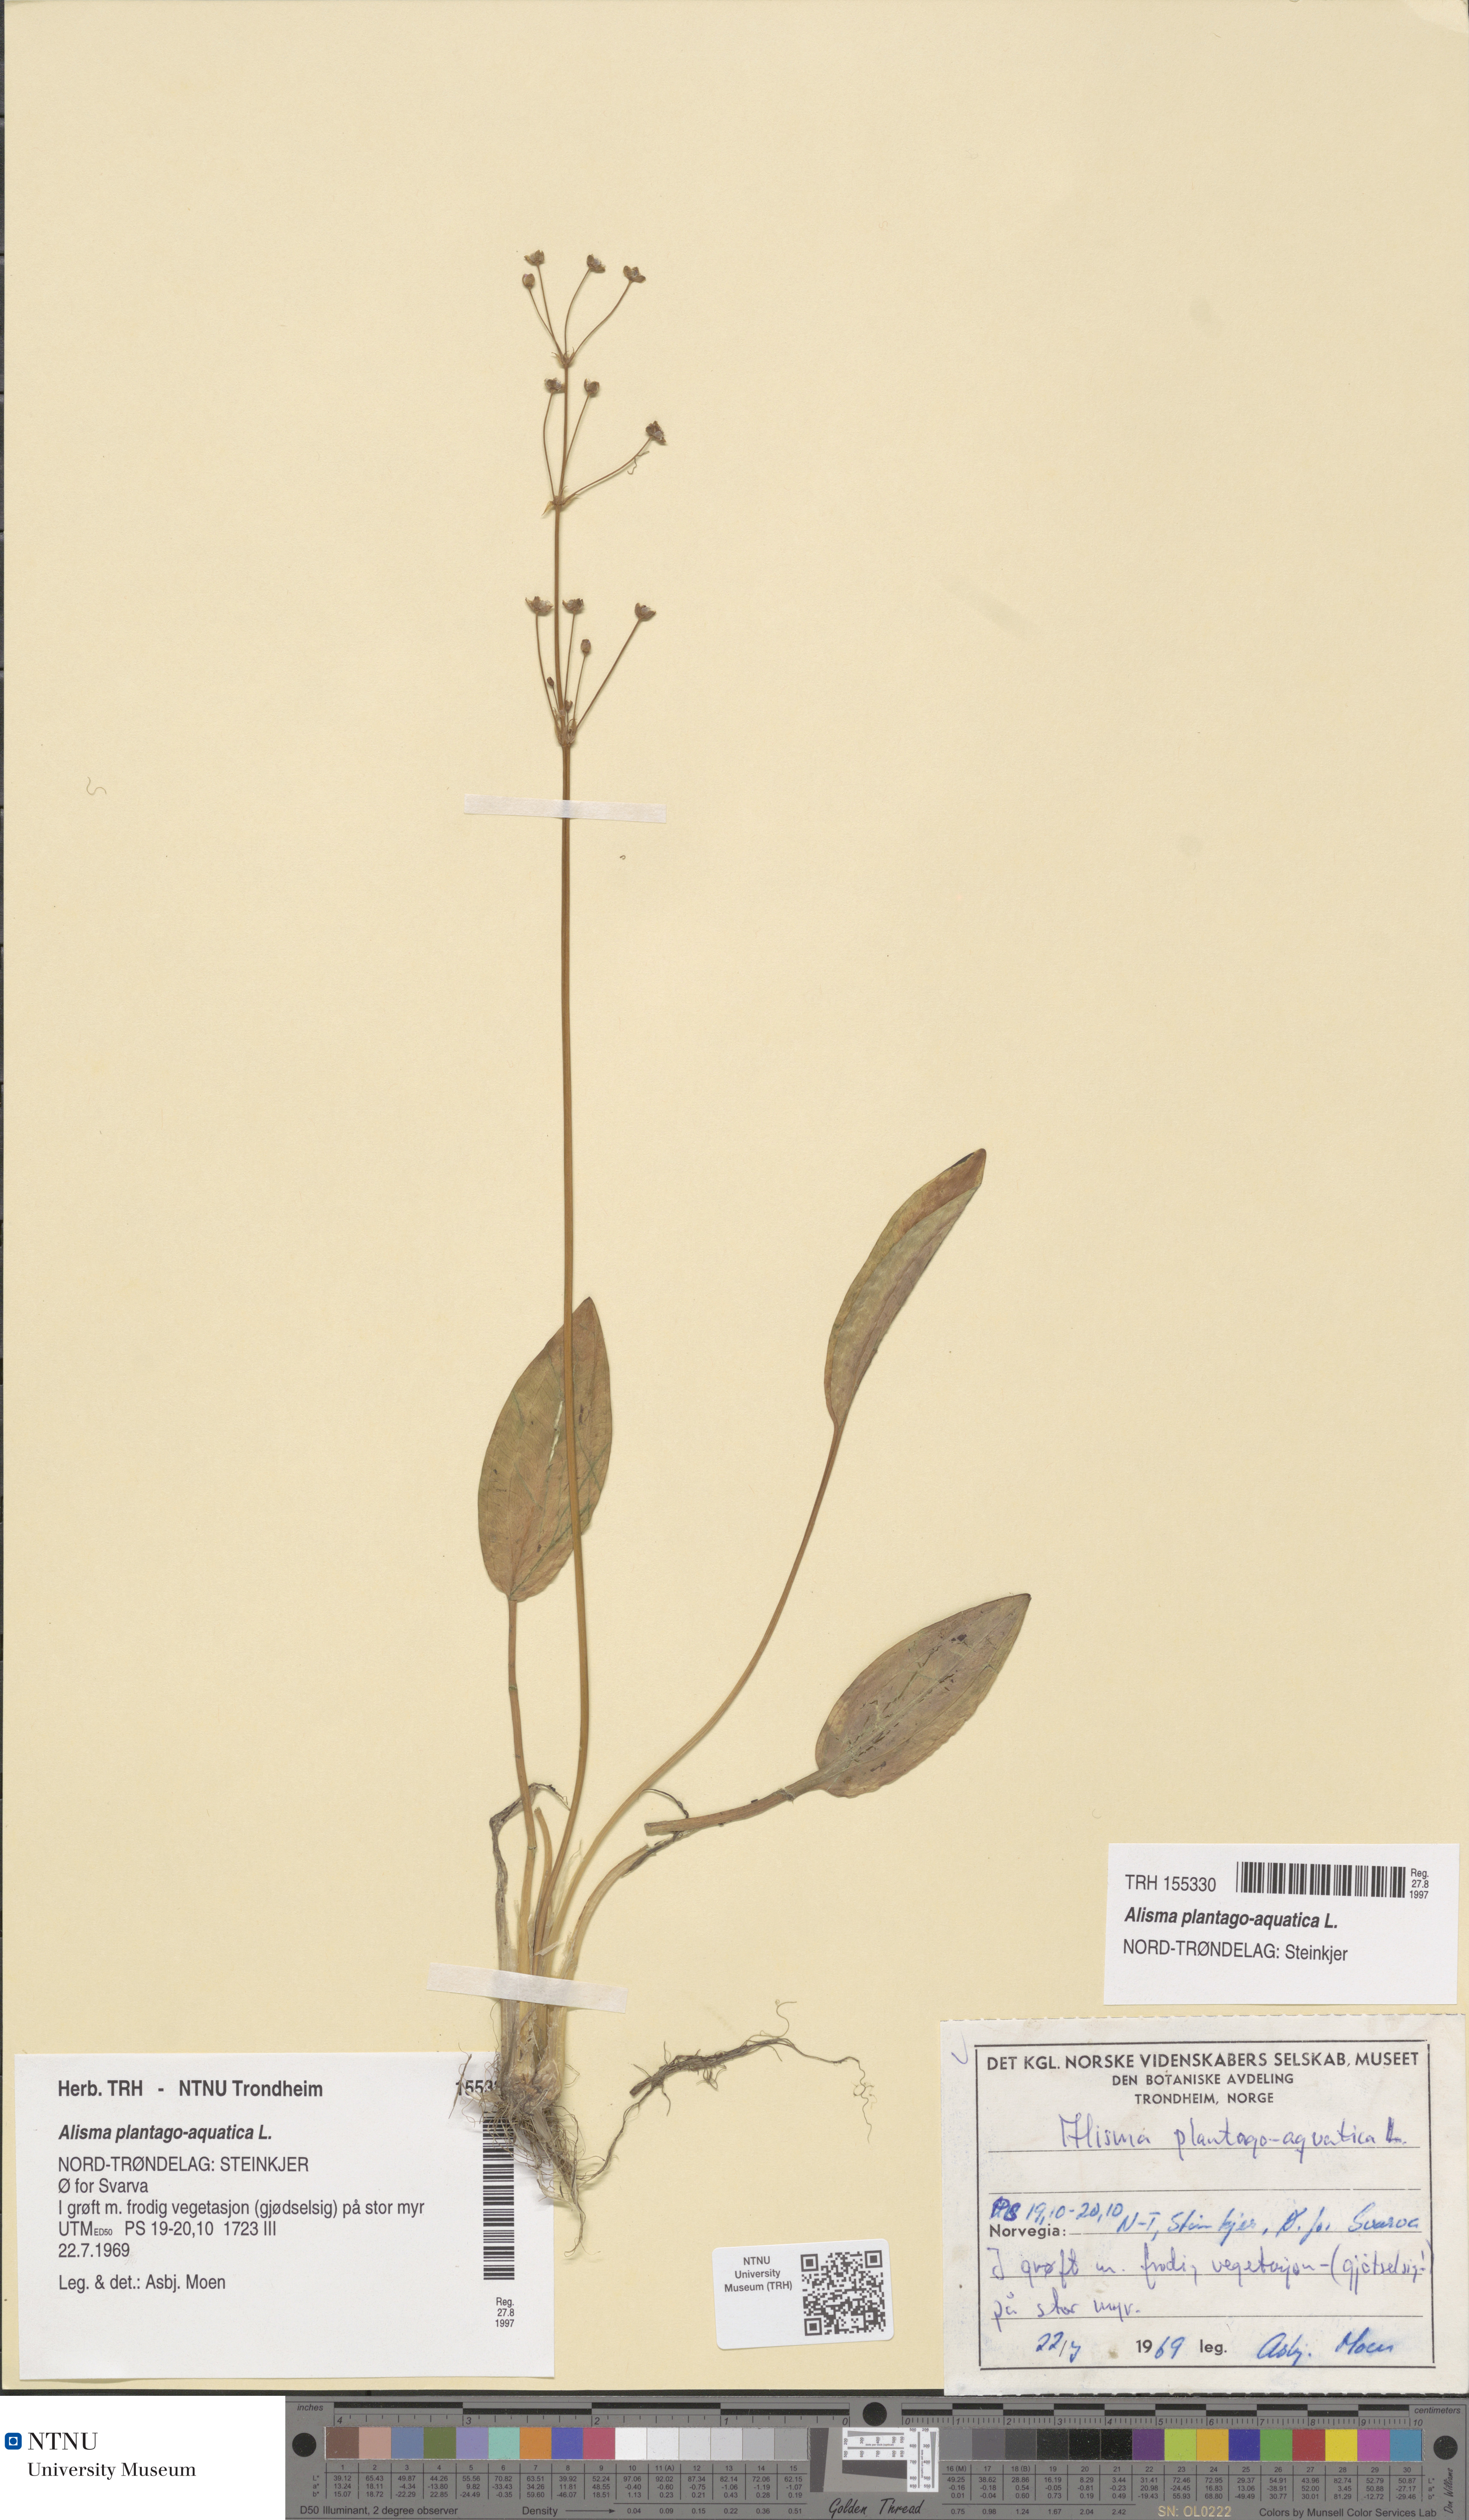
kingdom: Plantae
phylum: Tracheophyta
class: Liliopsida
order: Alismatales
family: Alismataceae
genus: Alisma
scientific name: Alisma plantago-aquatica
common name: Water-plantain
